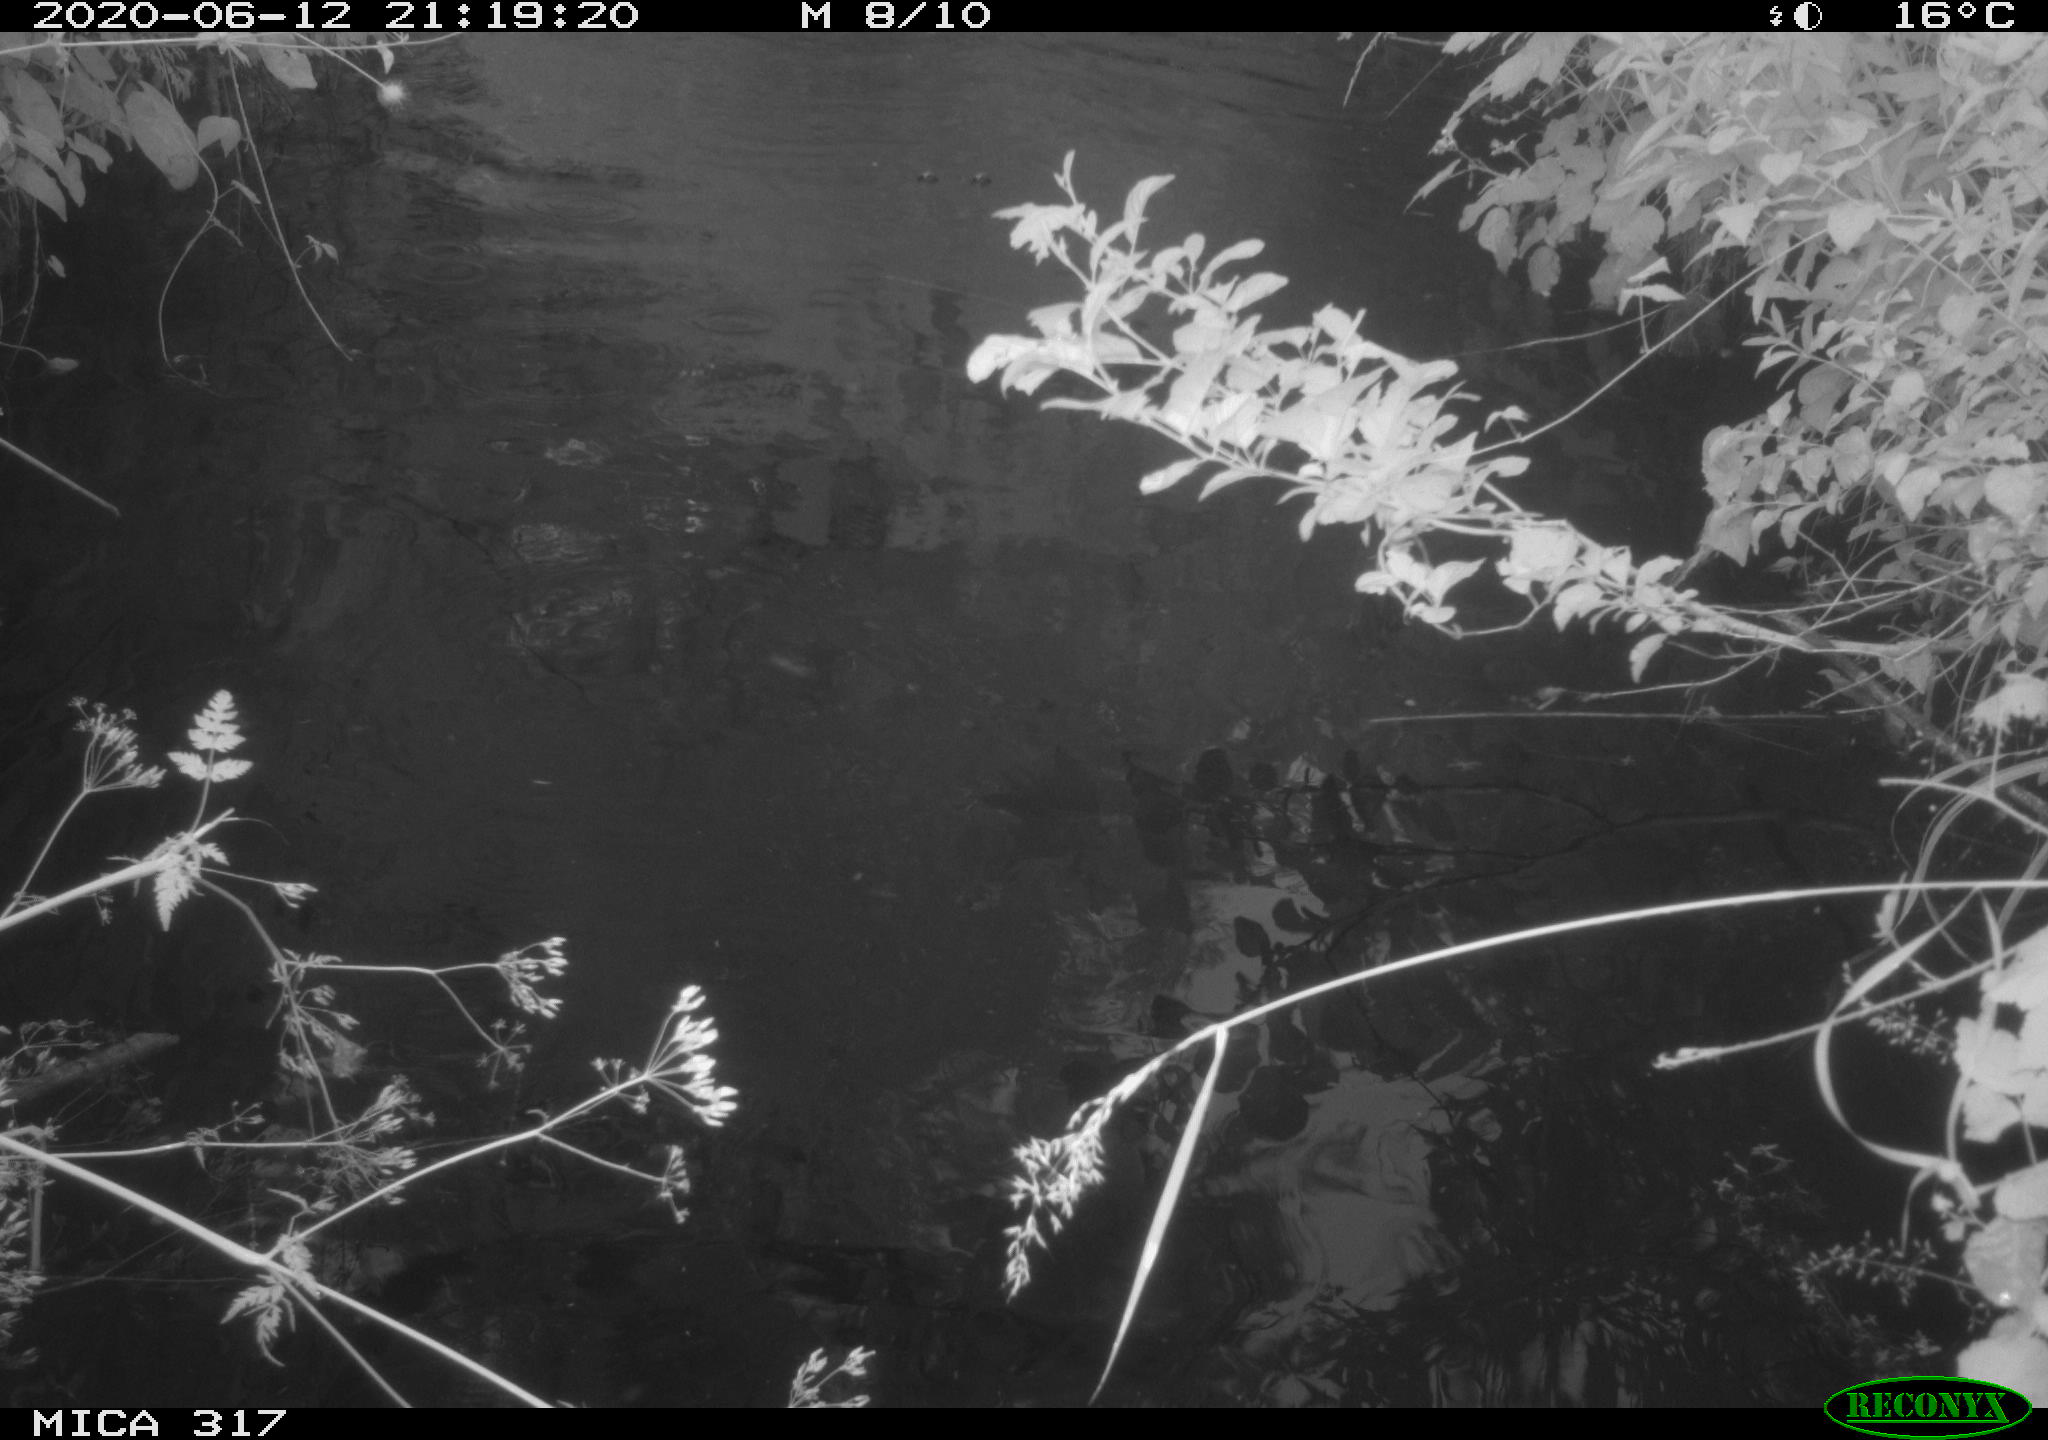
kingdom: Animalia
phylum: Chordata
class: Aves
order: Anseriformes
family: Anatidae
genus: Anas
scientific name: Anas platyrhynchos
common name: Mallard
